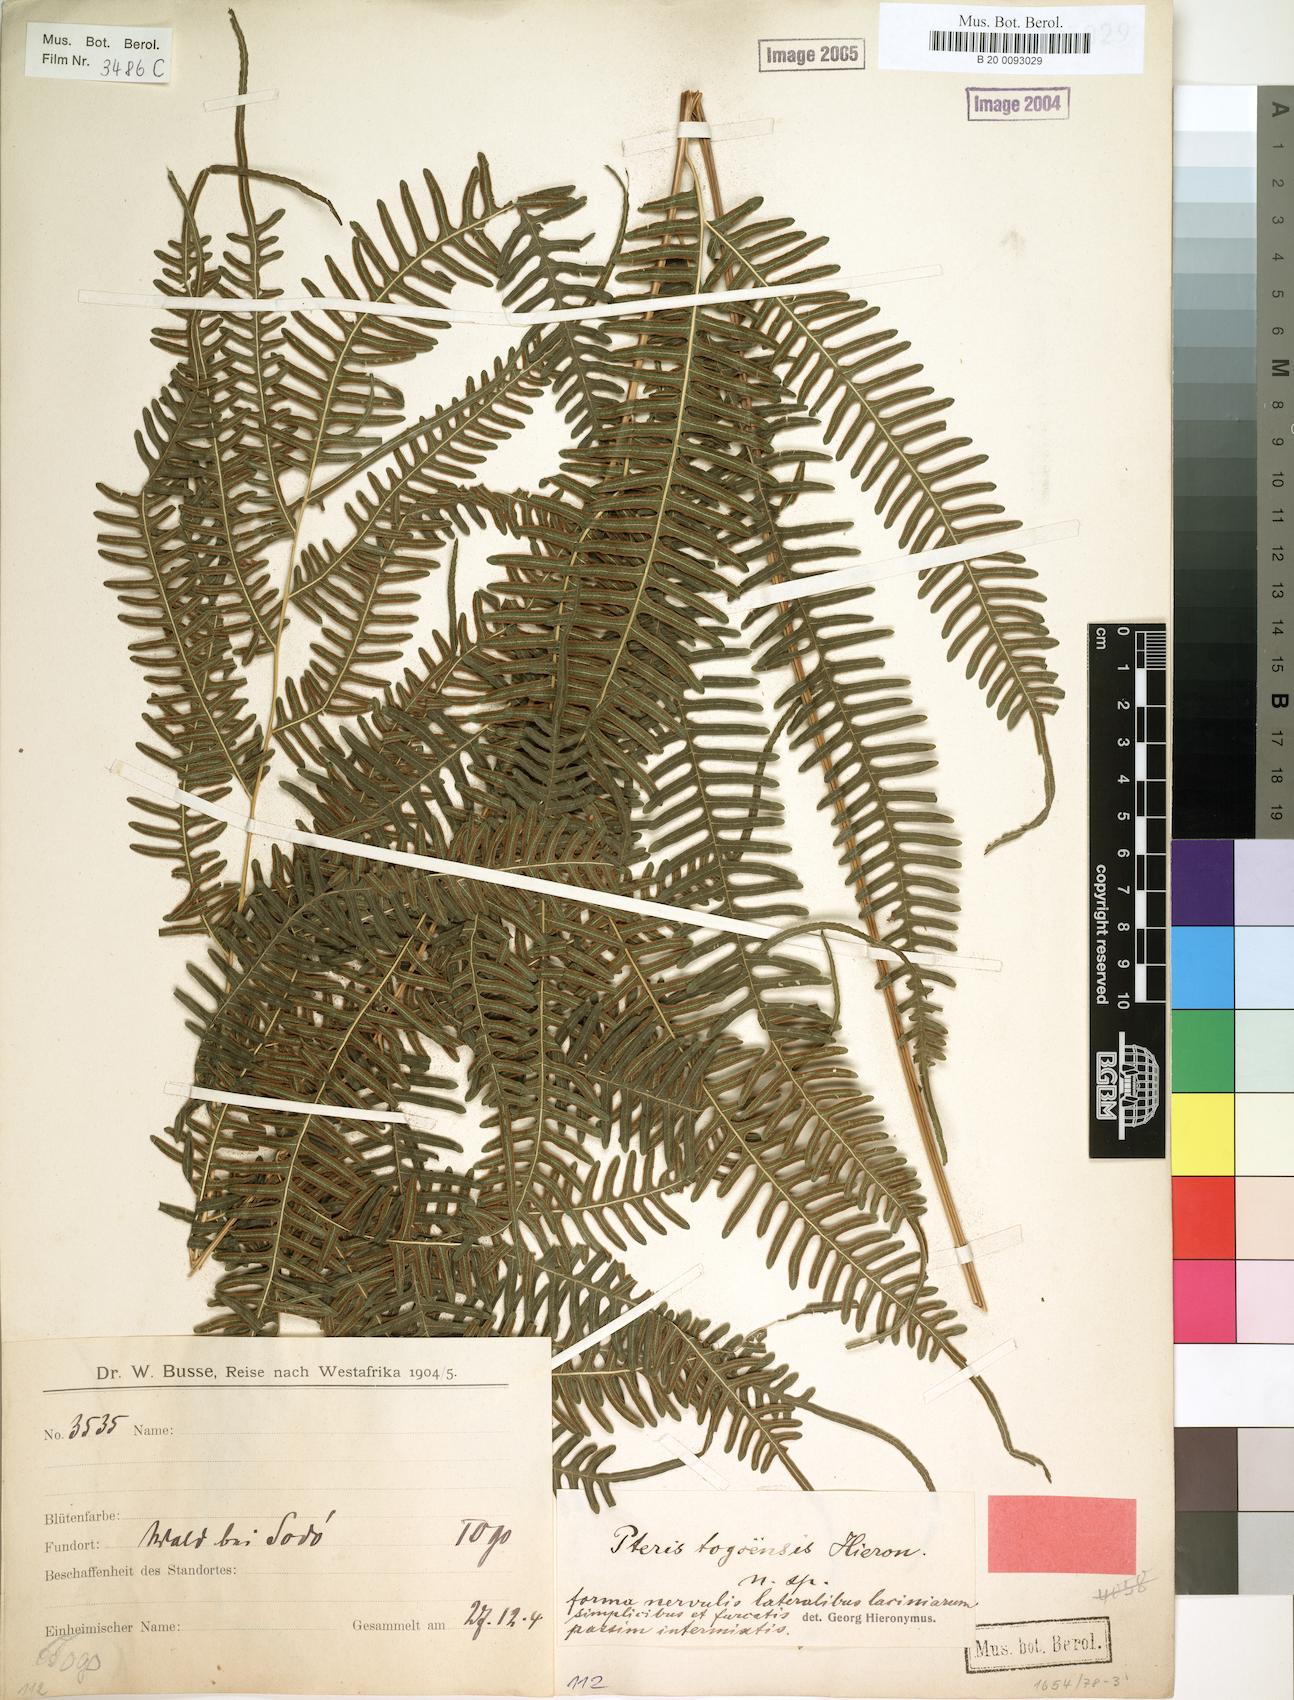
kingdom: Plantae
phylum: Tracheophyta
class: Polypodiopsida
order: Polypodiales
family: Pteridaceae
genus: Pteris
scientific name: Pteris togoensis
